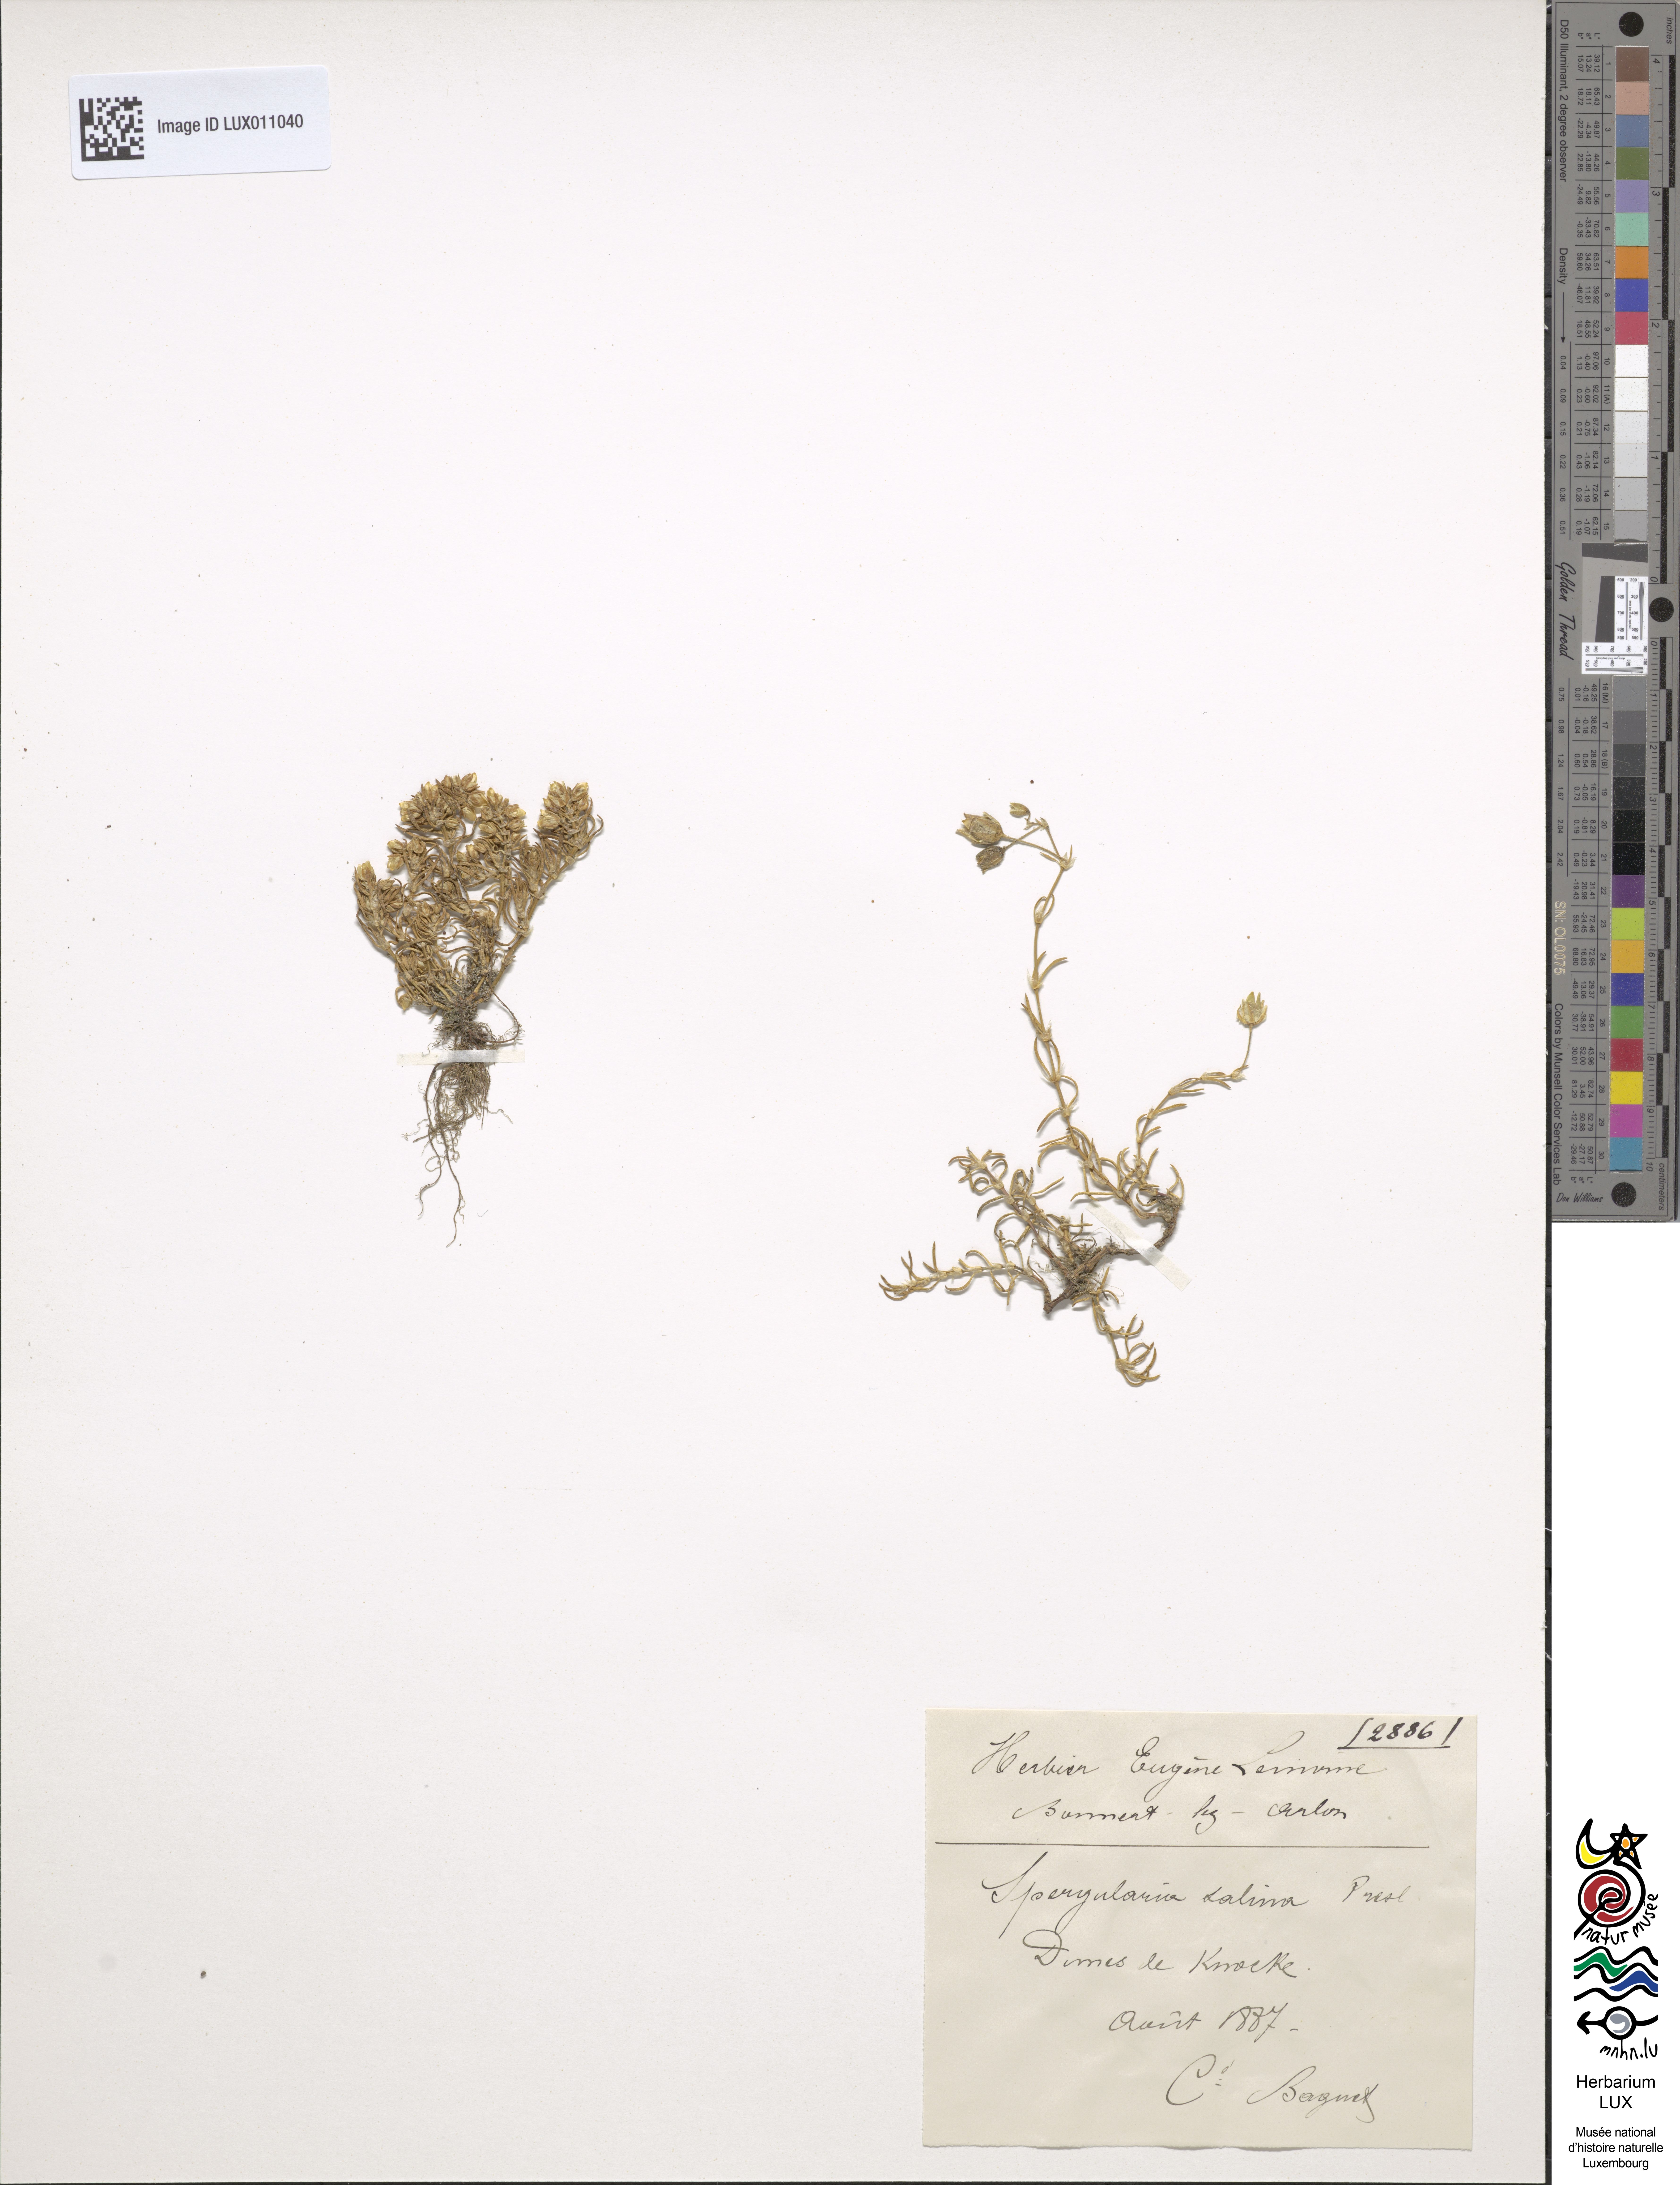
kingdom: Plantae
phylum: Tracheophyta
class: Magnoliopsida
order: Caryophyllales
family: Caryophyllaceae
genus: Spergularia
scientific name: Spergularia marina
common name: Lesser sea-spurrey
